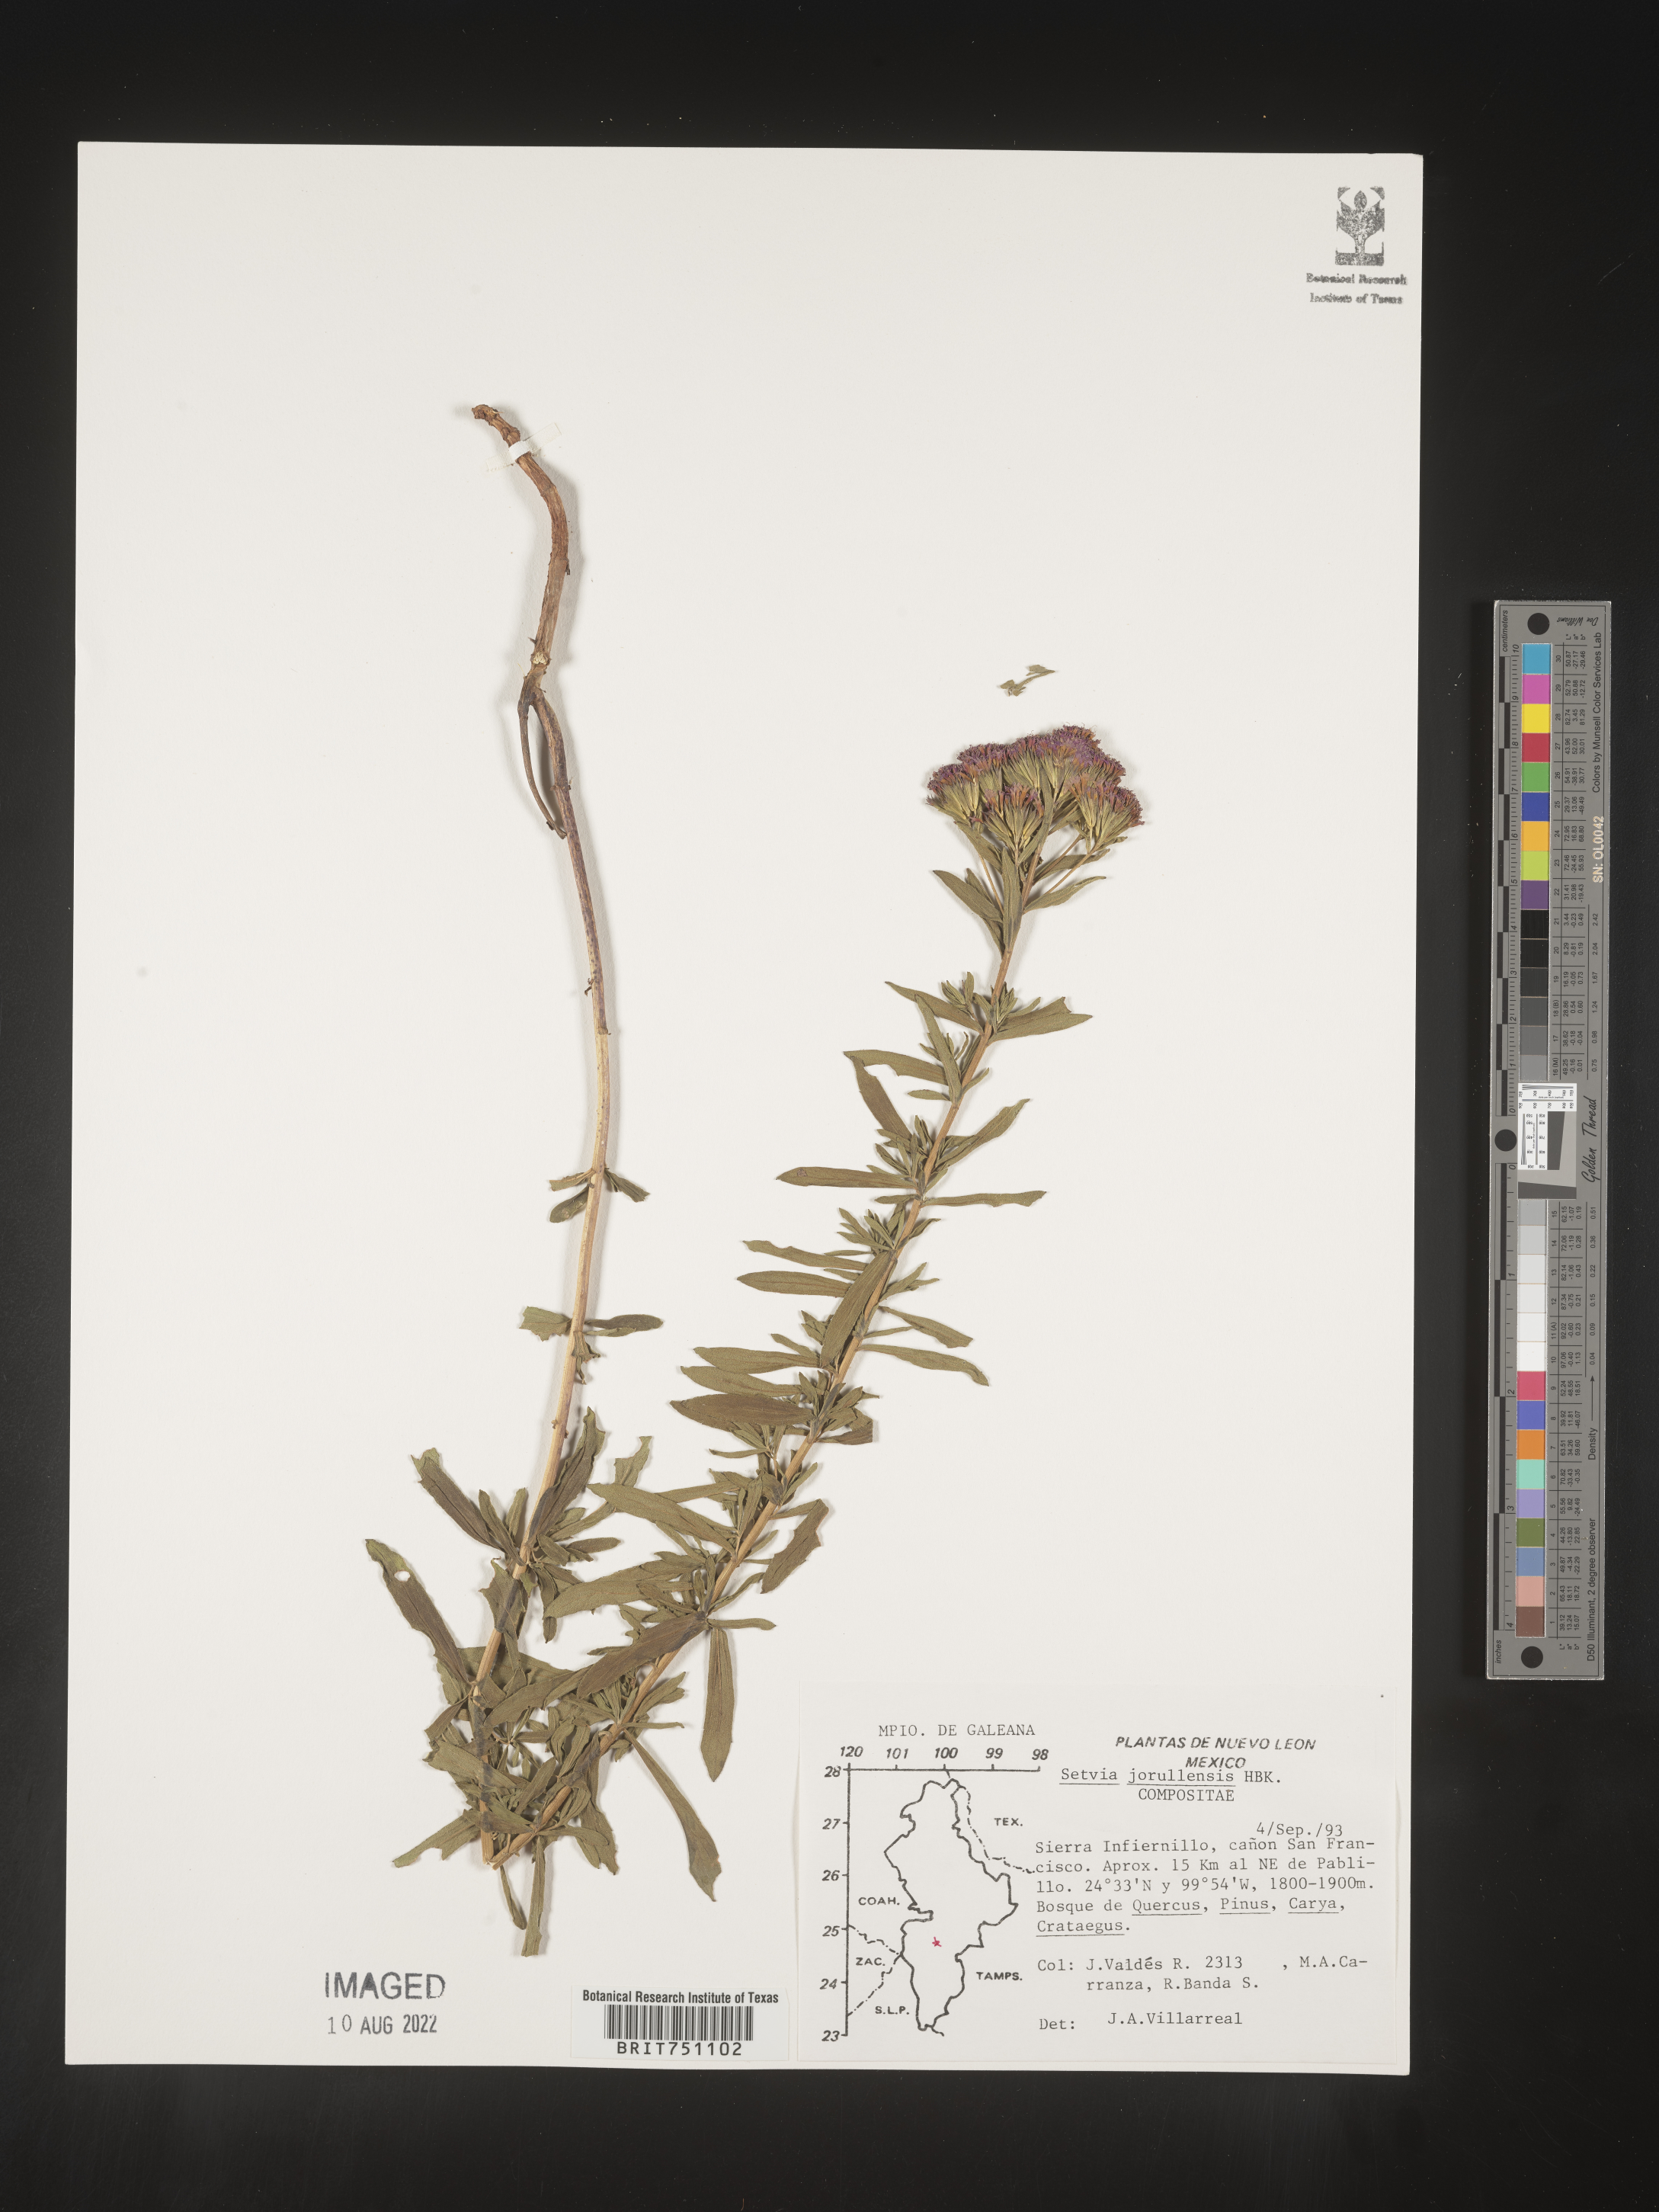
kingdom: Plantae
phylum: Tracheophyta
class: Magnoliopsida
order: Asterales
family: Asteraceae
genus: Stevia
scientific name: Stevia jorullensis
